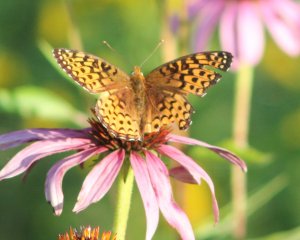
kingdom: Animalia
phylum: Arthropoda
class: Insecta
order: Lepidoptera
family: Nymphalidae
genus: Speyeria
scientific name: Speyeria atlantis
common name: Atlantis Fritillary
